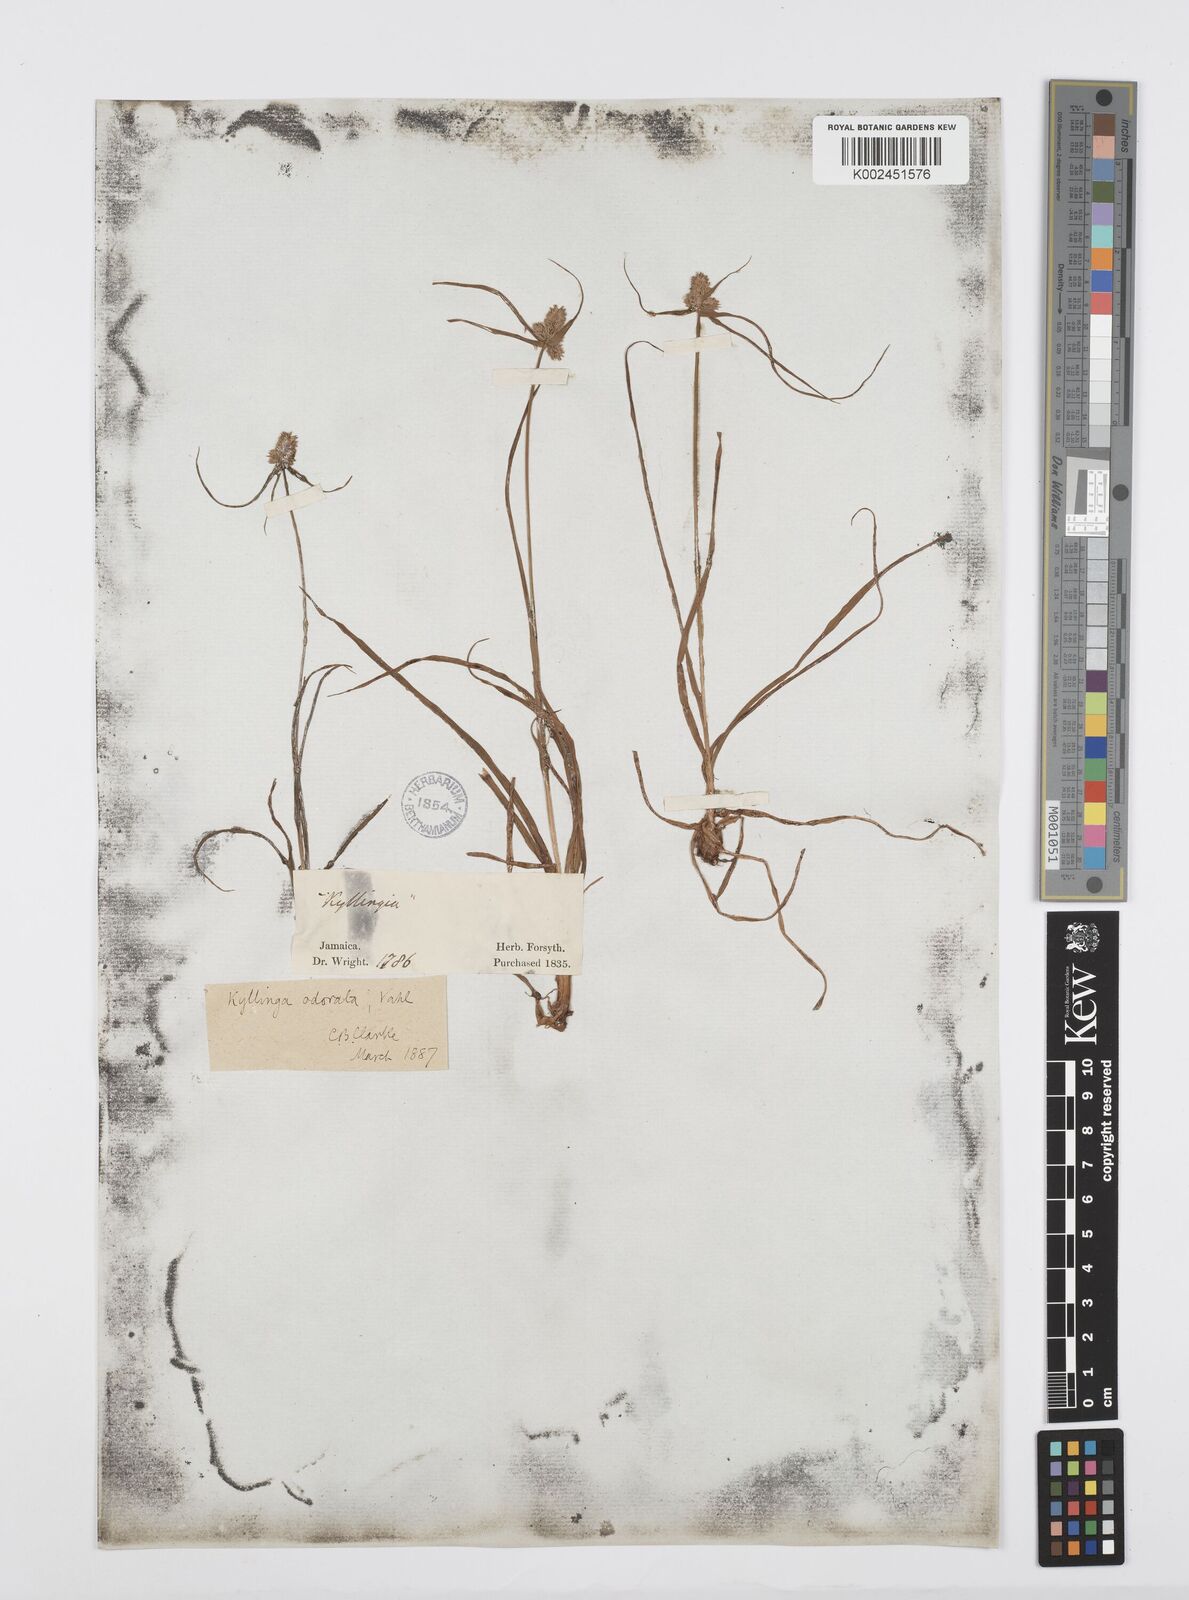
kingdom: Plantae
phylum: Tracheophyta
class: Liliopsida
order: Poales
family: Cyperaceae
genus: Cyperus
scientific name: Cyperus
